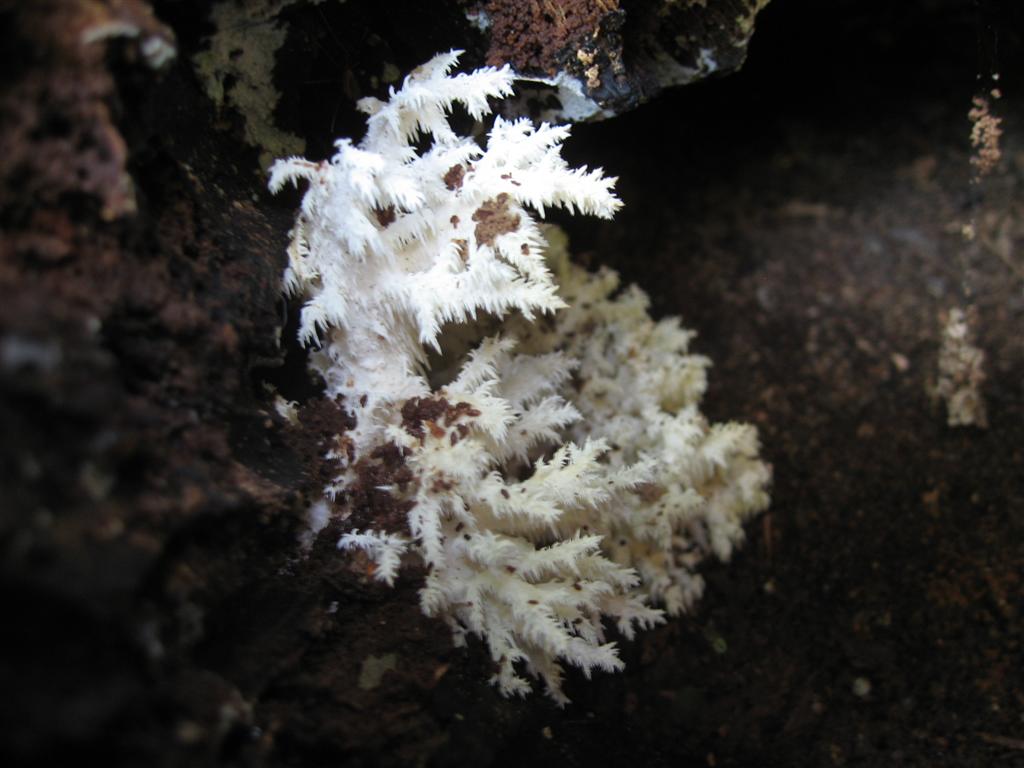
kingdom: Fungi
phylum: Basidiomycota
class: Agaricomycetes
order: Russulales
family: Hericiaceae
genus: Hericium
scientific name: Hericium coralloides
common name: koralpigsvamp
